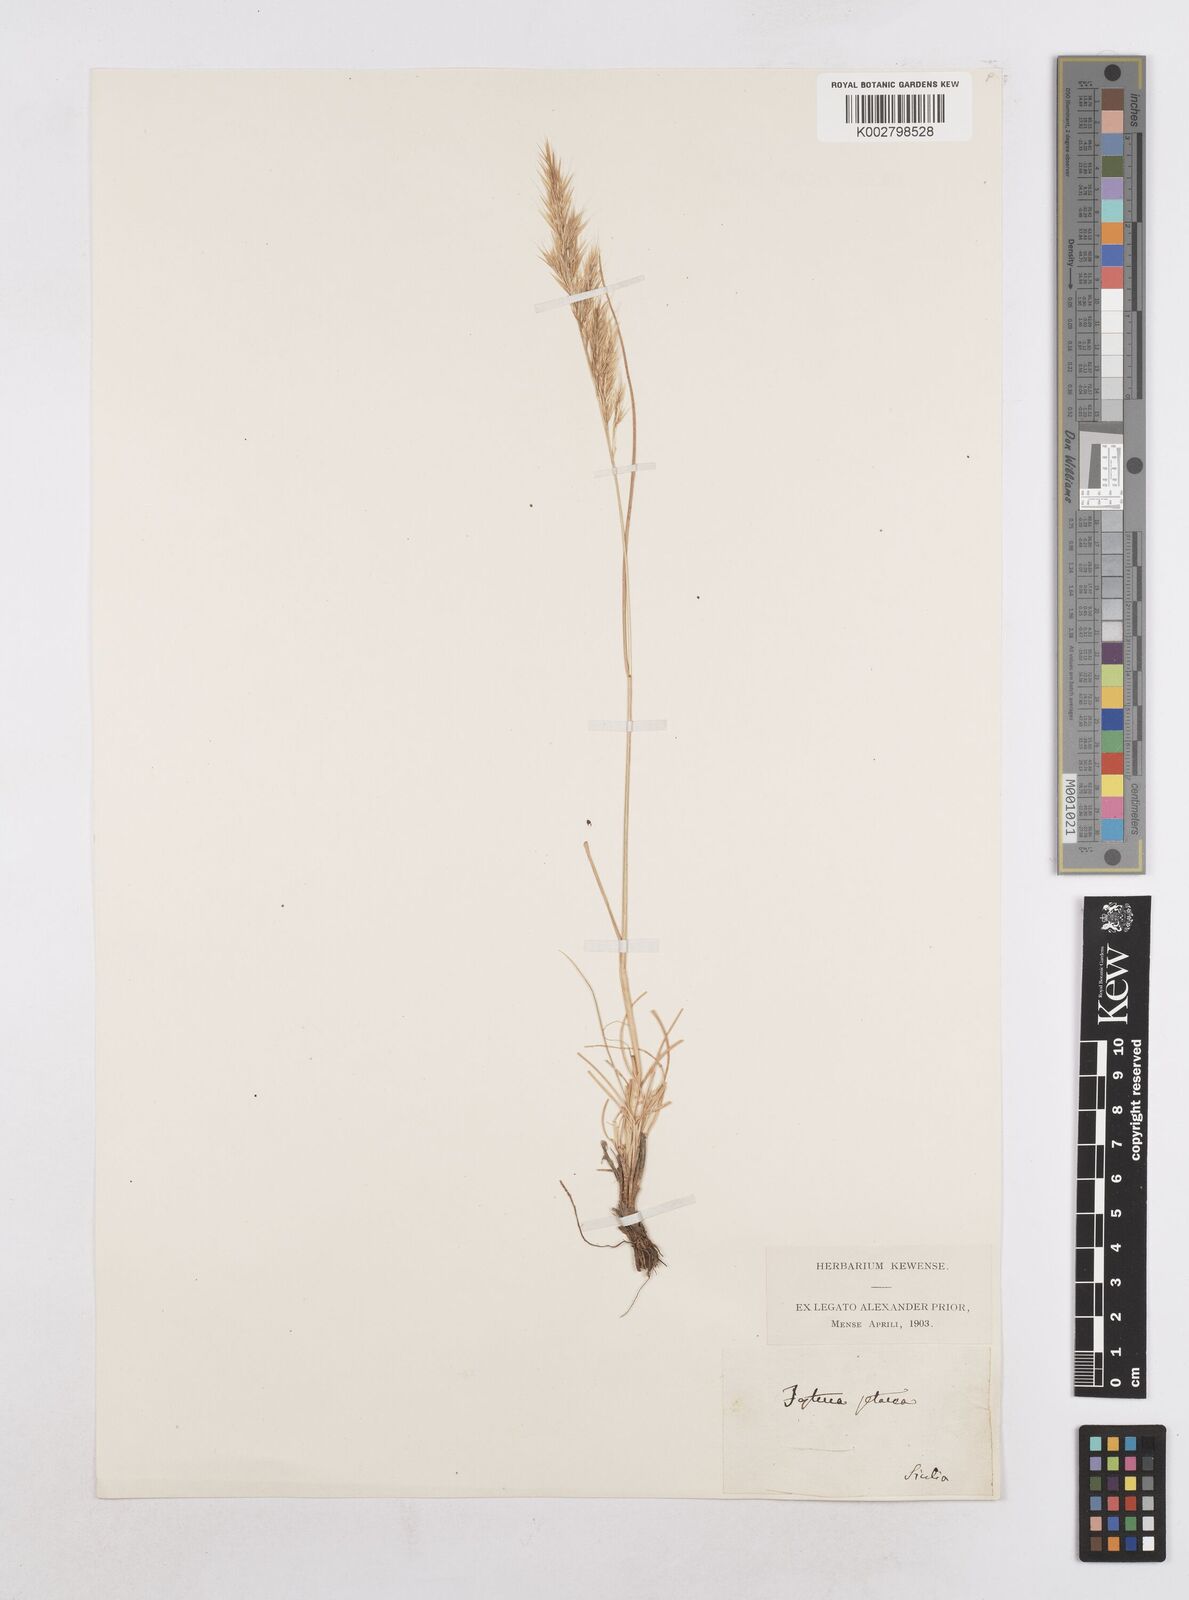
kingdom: Plantae
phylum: Tracheophyta
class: Liliopsida
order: Poales
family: Poaceae
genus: Festuca
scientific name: Festuca sicula
